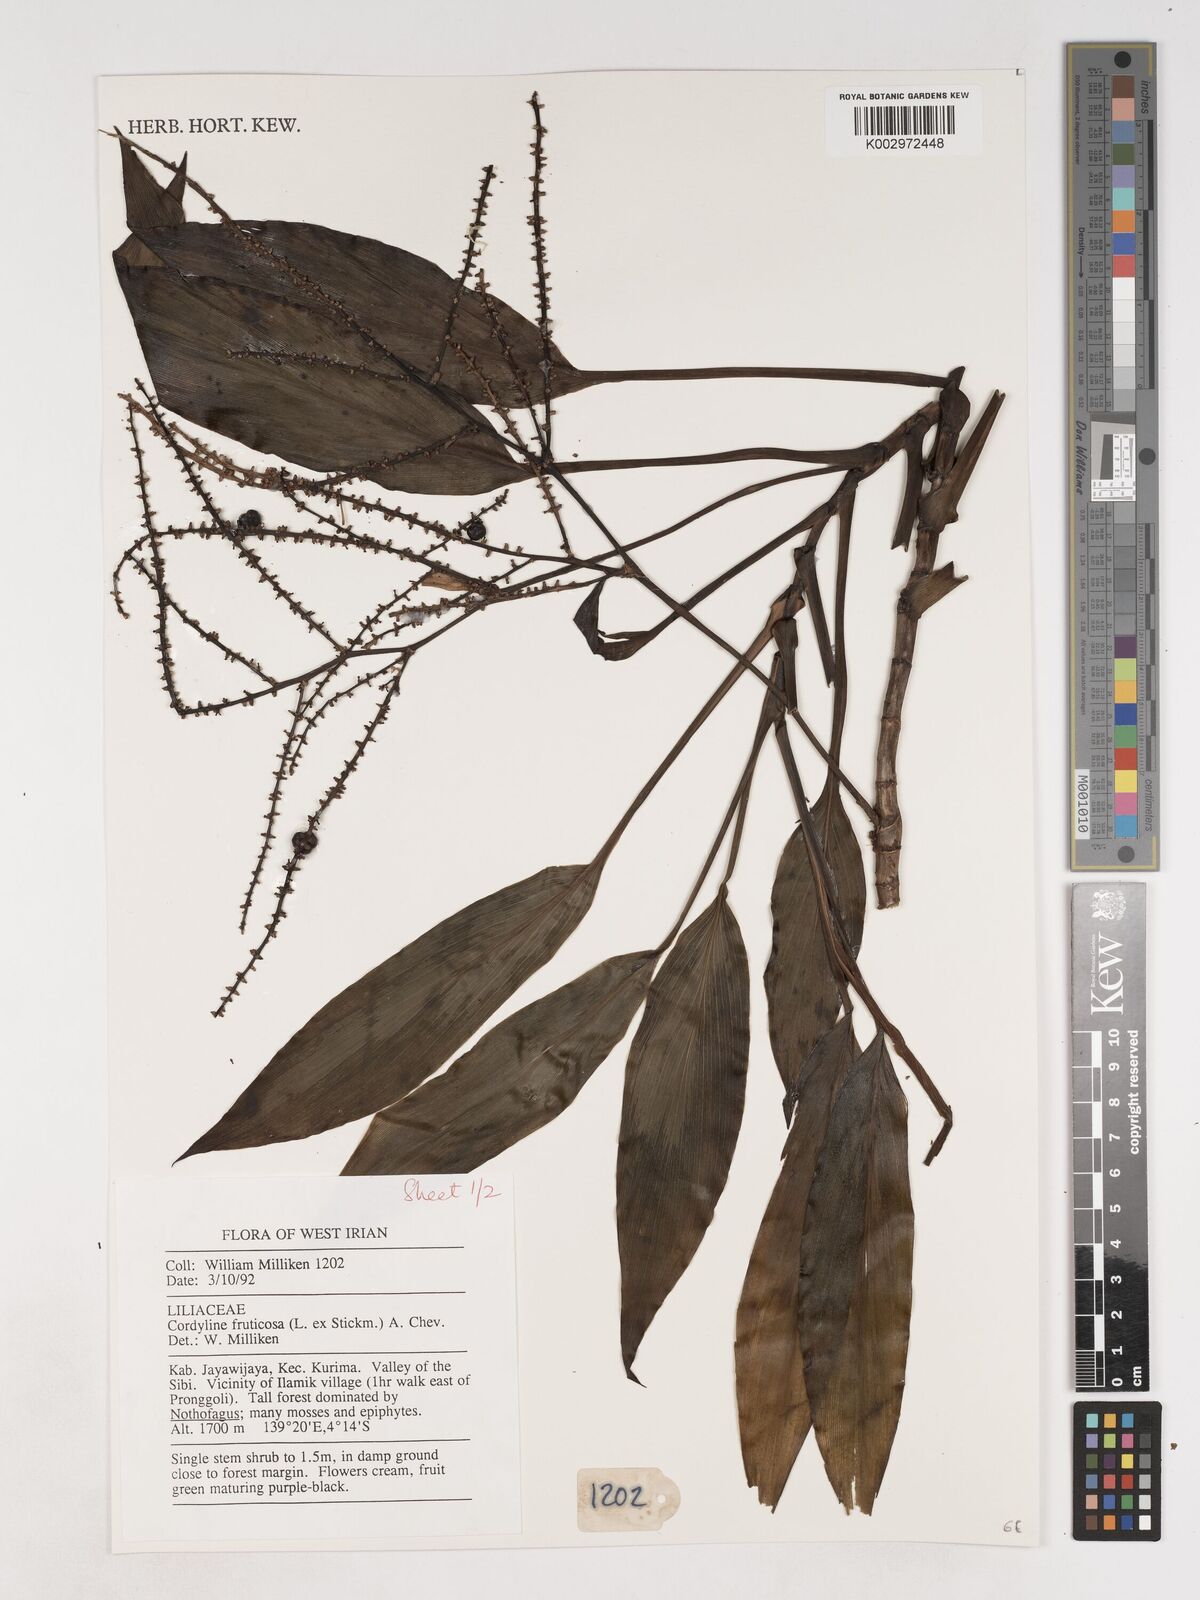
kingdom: Plantae
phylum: Tracheophyta
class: Liliopsida
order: Asparagales
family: Asparagaceae
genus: Cordyline
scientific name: Cordyline fruticosa
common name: Good-luck-plant
